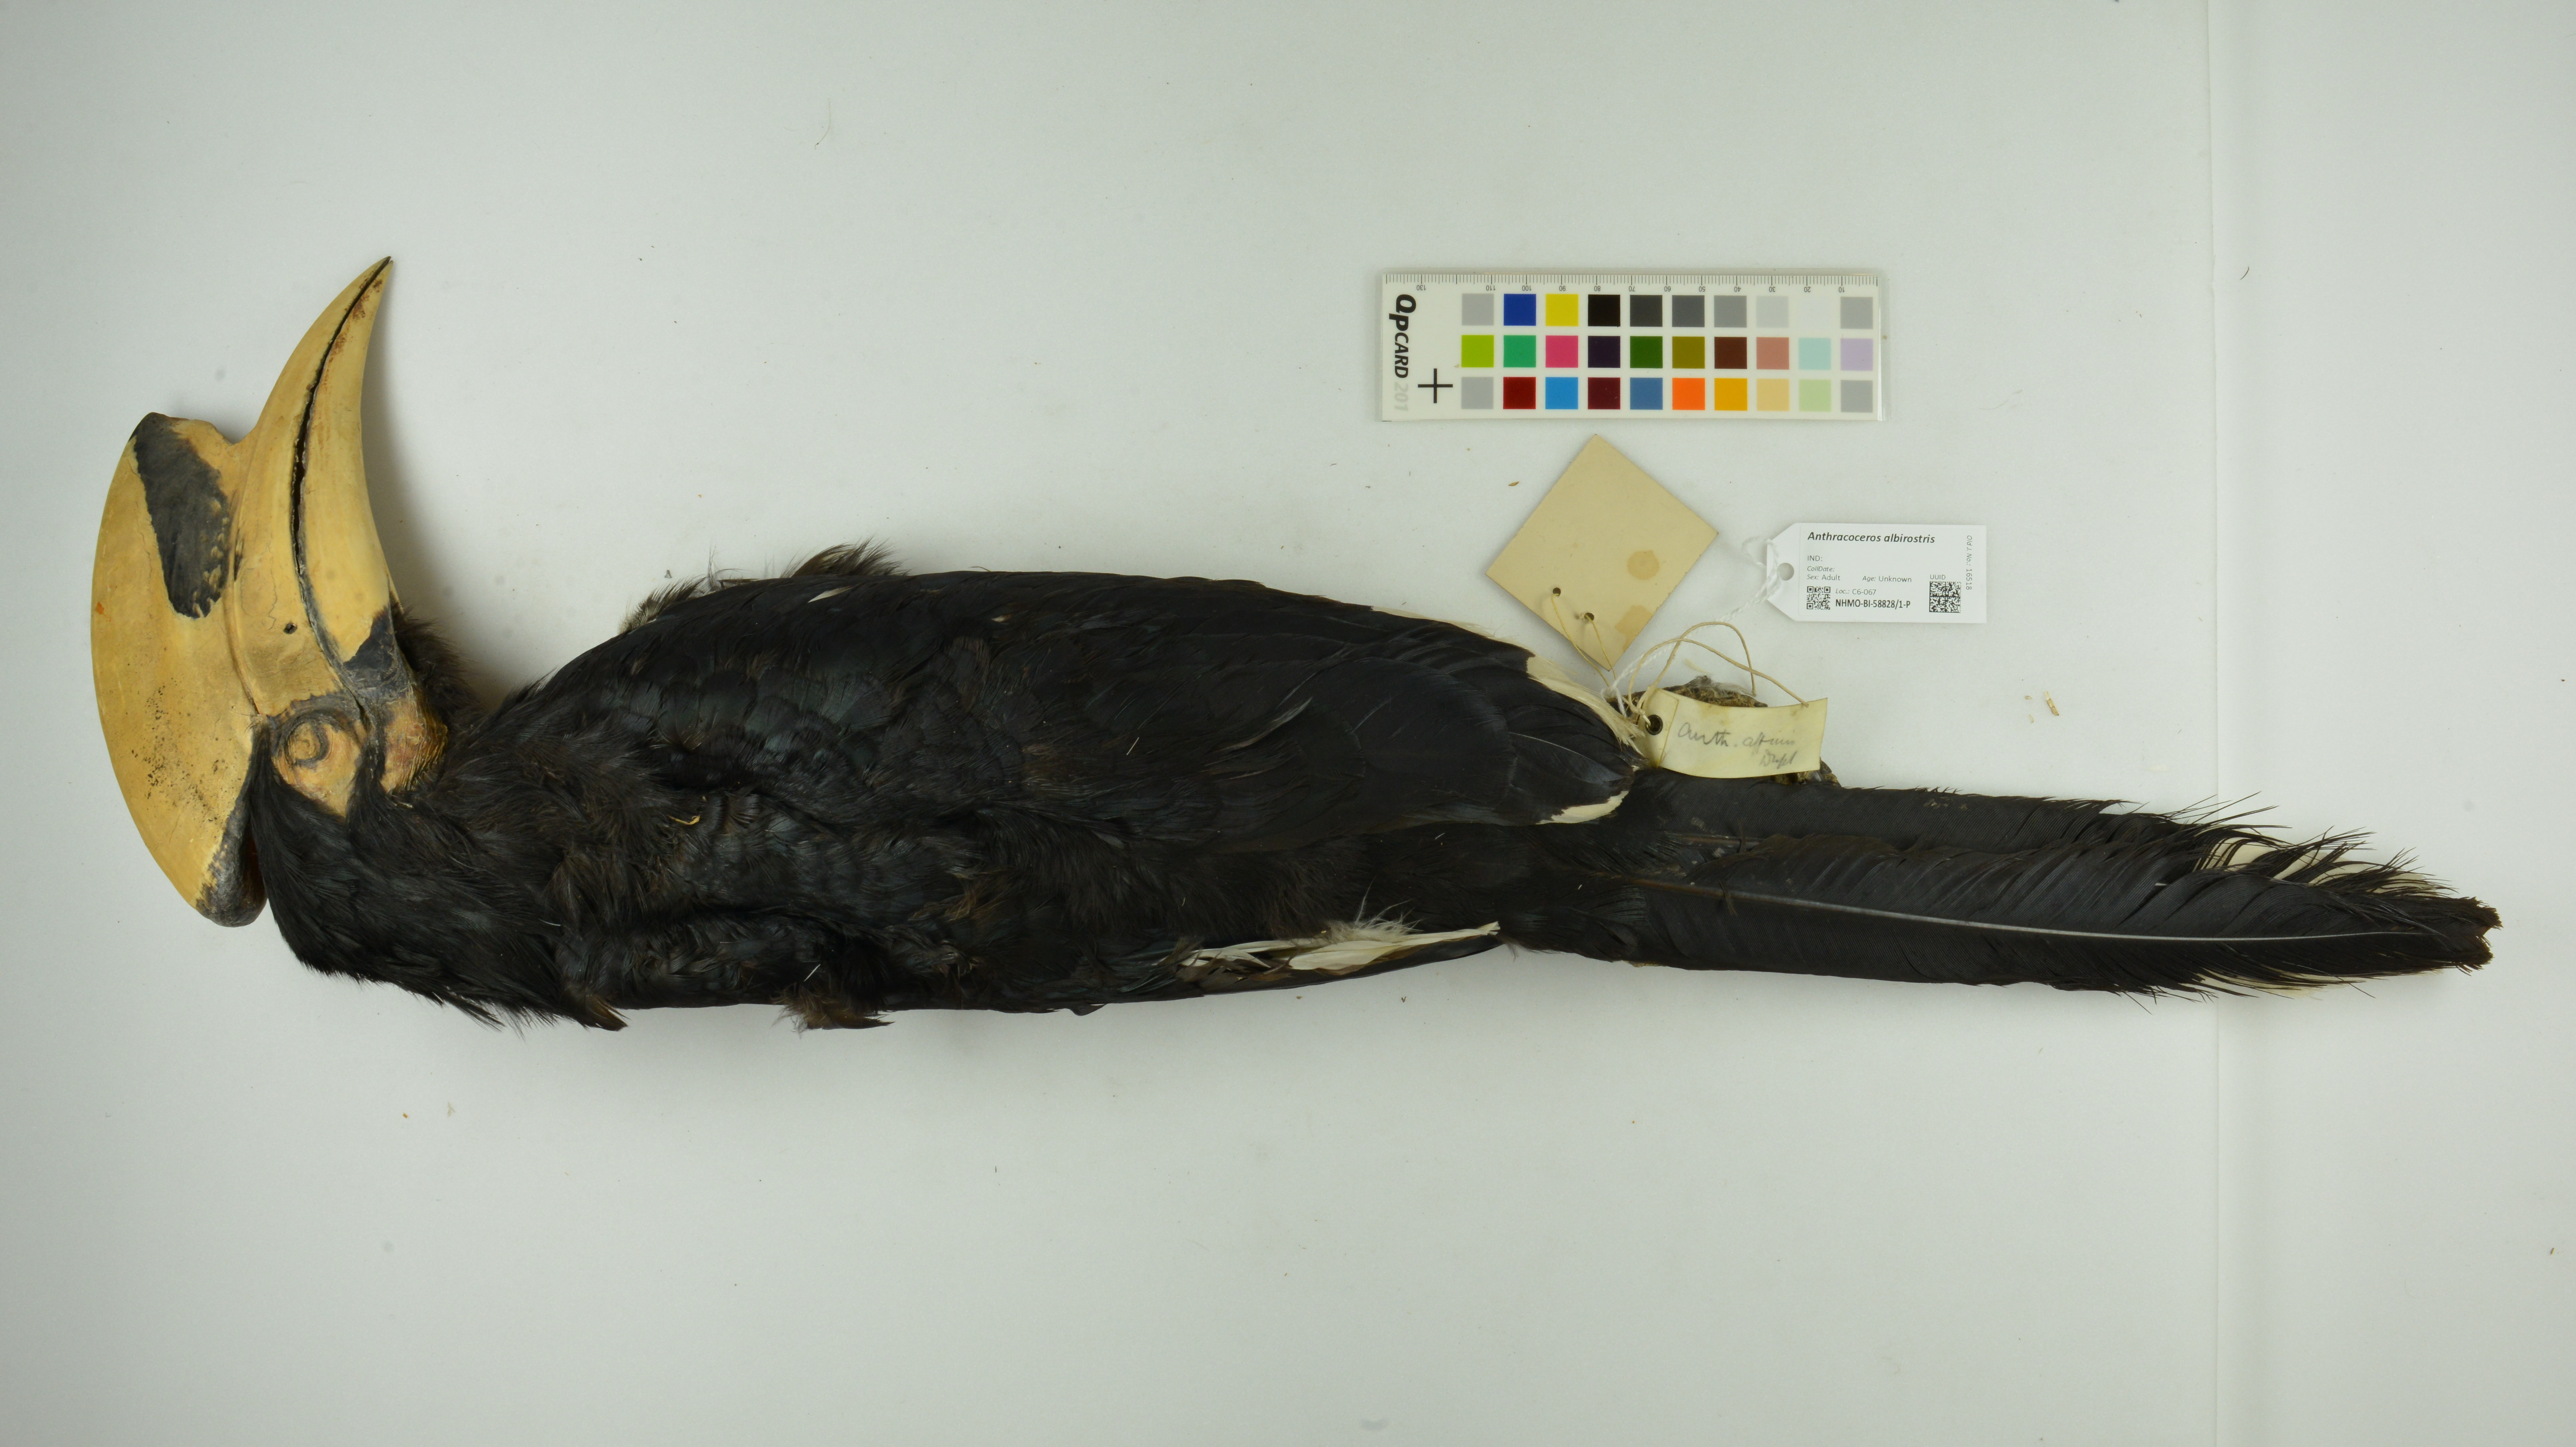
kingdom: Animalia
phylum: Chordata
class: Aves
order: Bucerotiformes
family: Bucerotidae
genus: Anthracoceros
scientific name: Anthracoceros albirostris
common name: Oriental pied-hornbill
